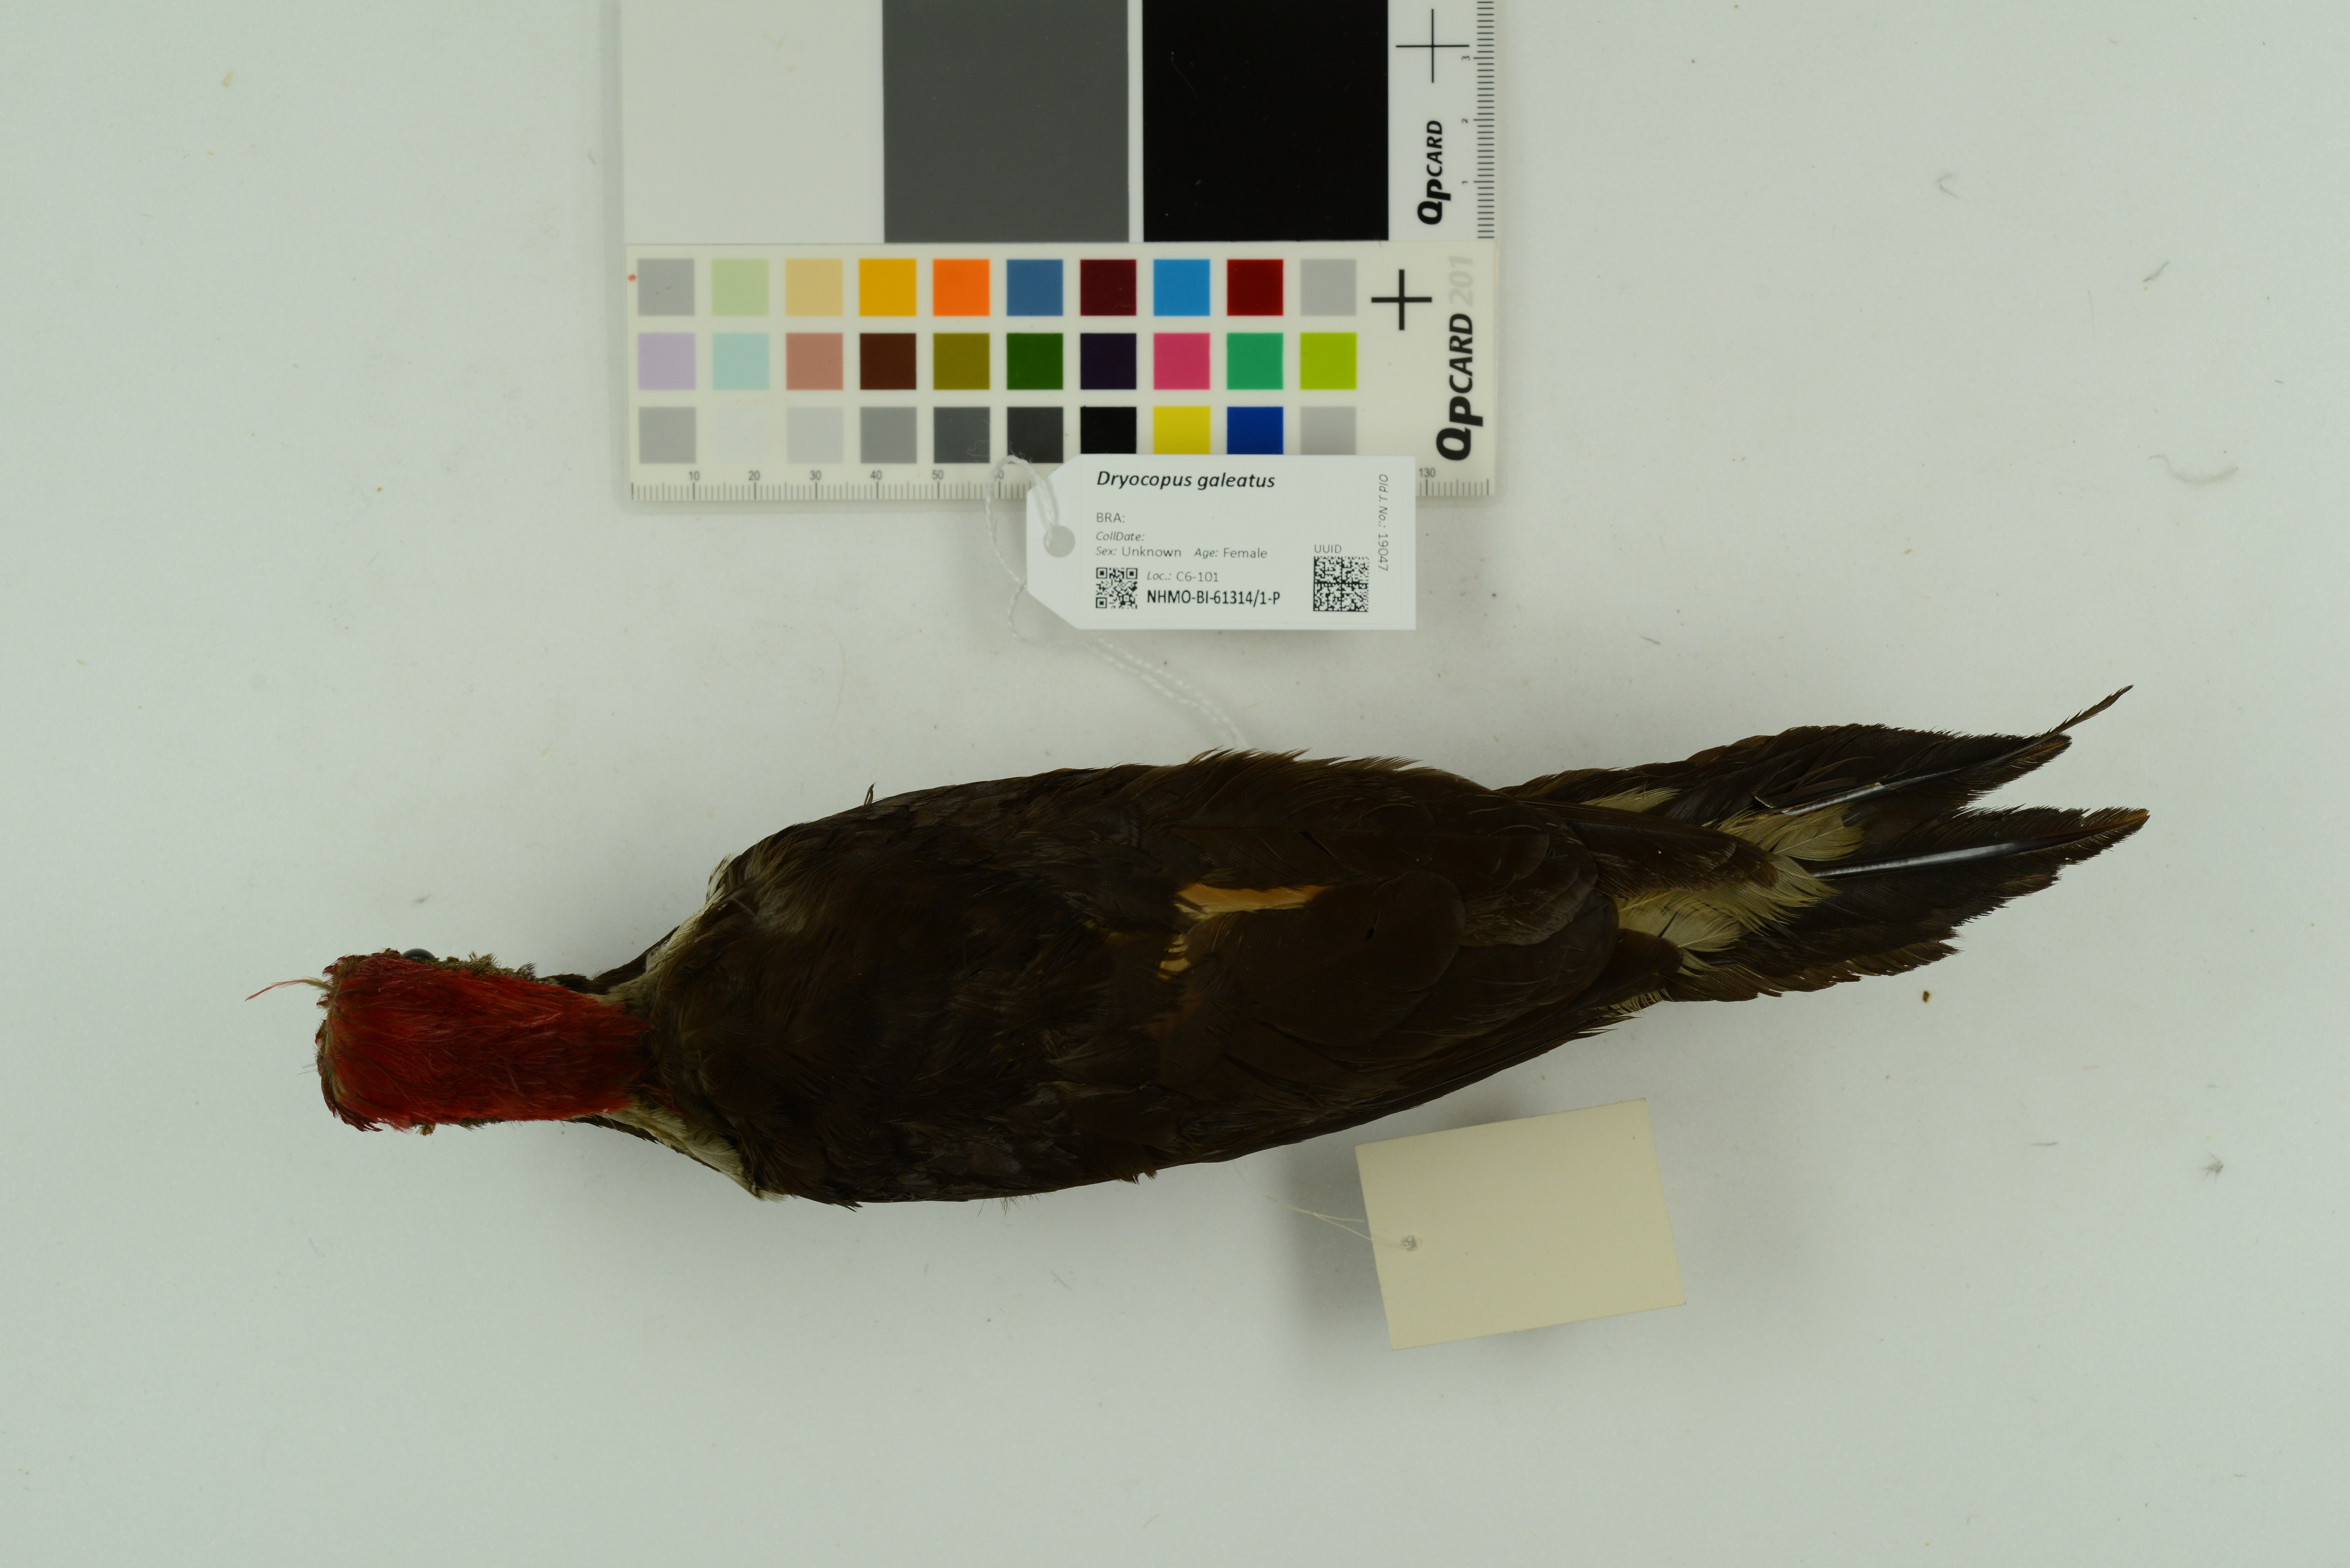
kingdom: Animalia
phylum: Chordata
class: Aves
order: Piciformes
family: Picidae
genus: Celeus
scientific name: Celeus galeatus
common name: Helmeted woodpecker
